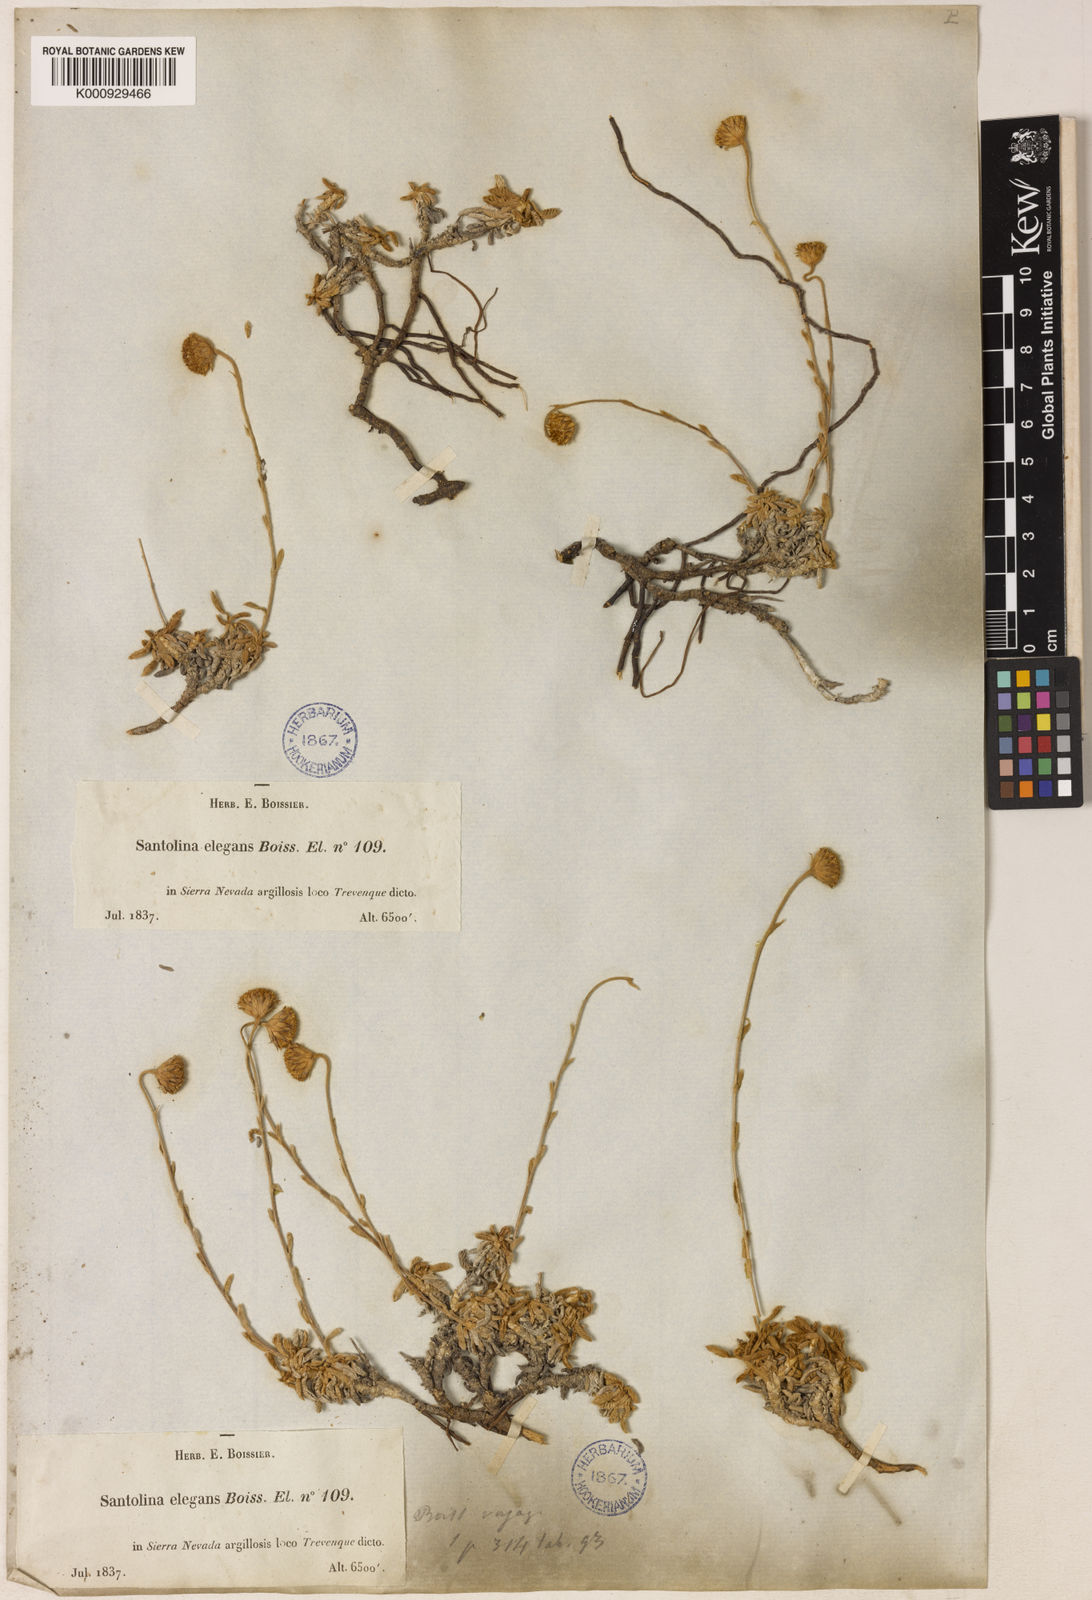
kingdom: Plantae
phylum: Tracheophyta
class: Magnoliopsida
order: Asterales
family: Asteraceae
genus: Santolina
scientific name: Santolina elegans
